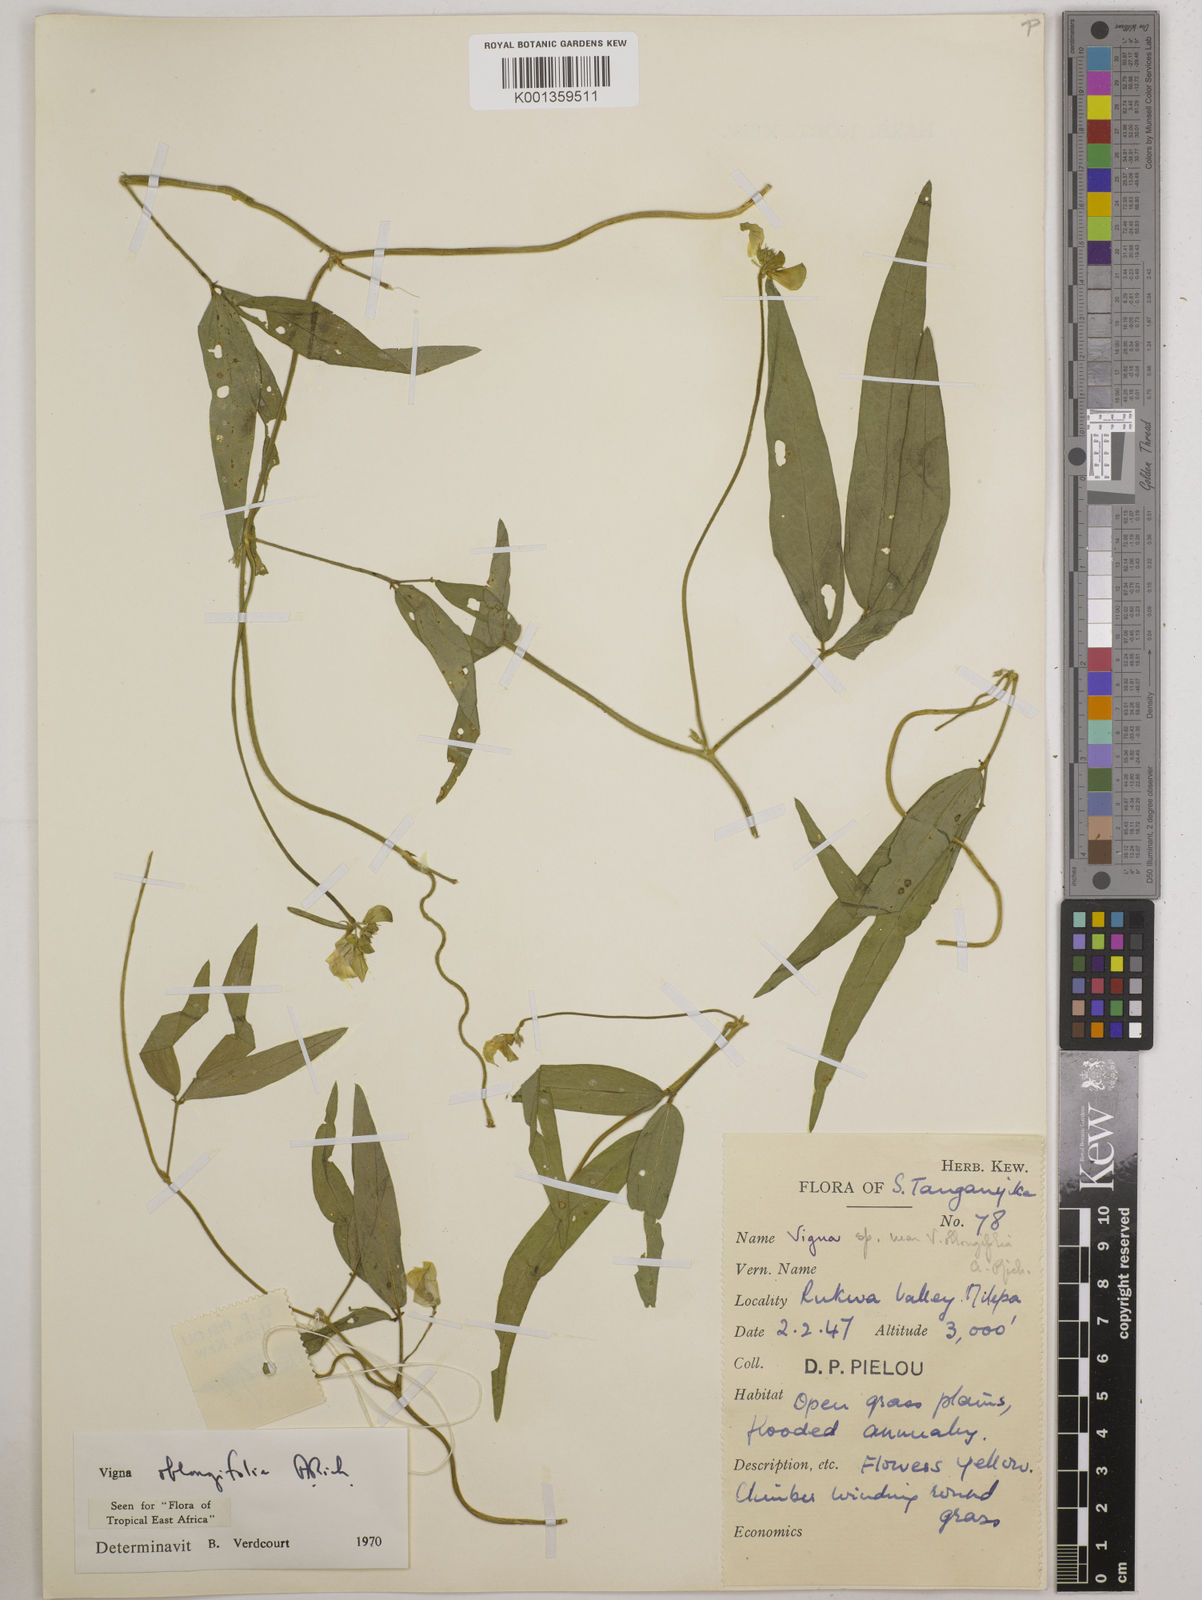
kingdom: Plantae
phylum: Tracheophyta
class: Magnoliopsida
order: Fabales
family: Fabaceae
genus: Vigna
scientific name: Vigna oblongifolia
